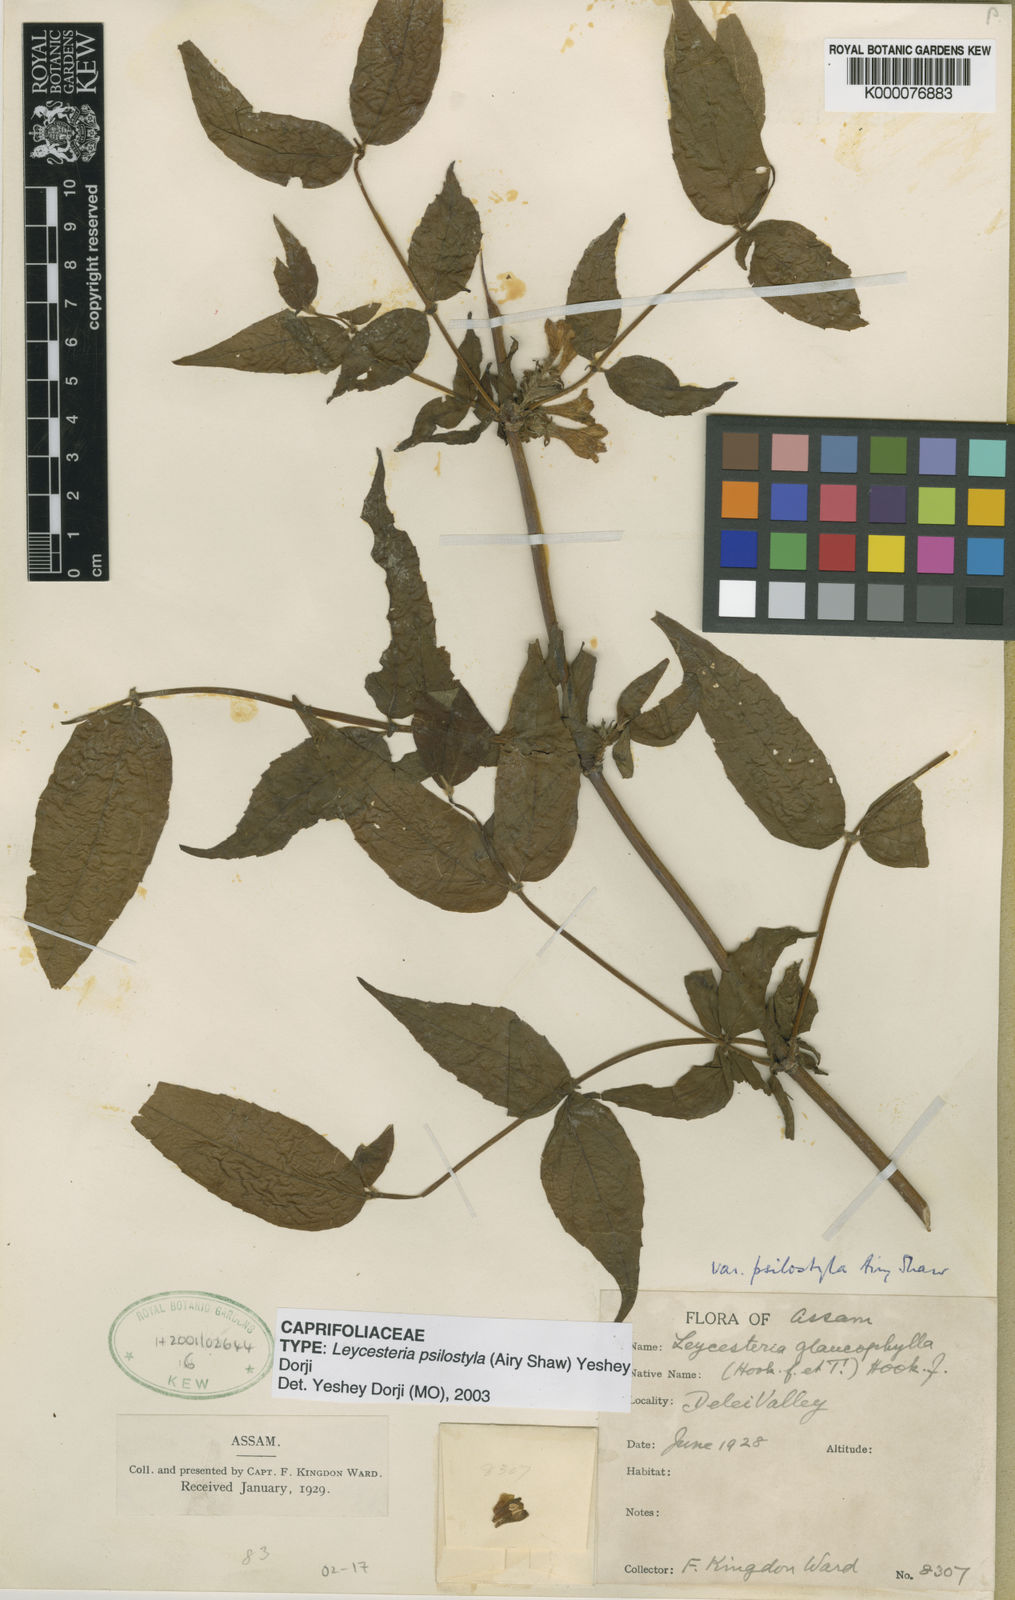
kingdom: Plantae
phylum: Tracheophyta
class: Magnoliopsida
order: Dipsacales
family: Caprifoliaceae
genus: Leycesteria
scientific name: Leycesteria glaucophylla
